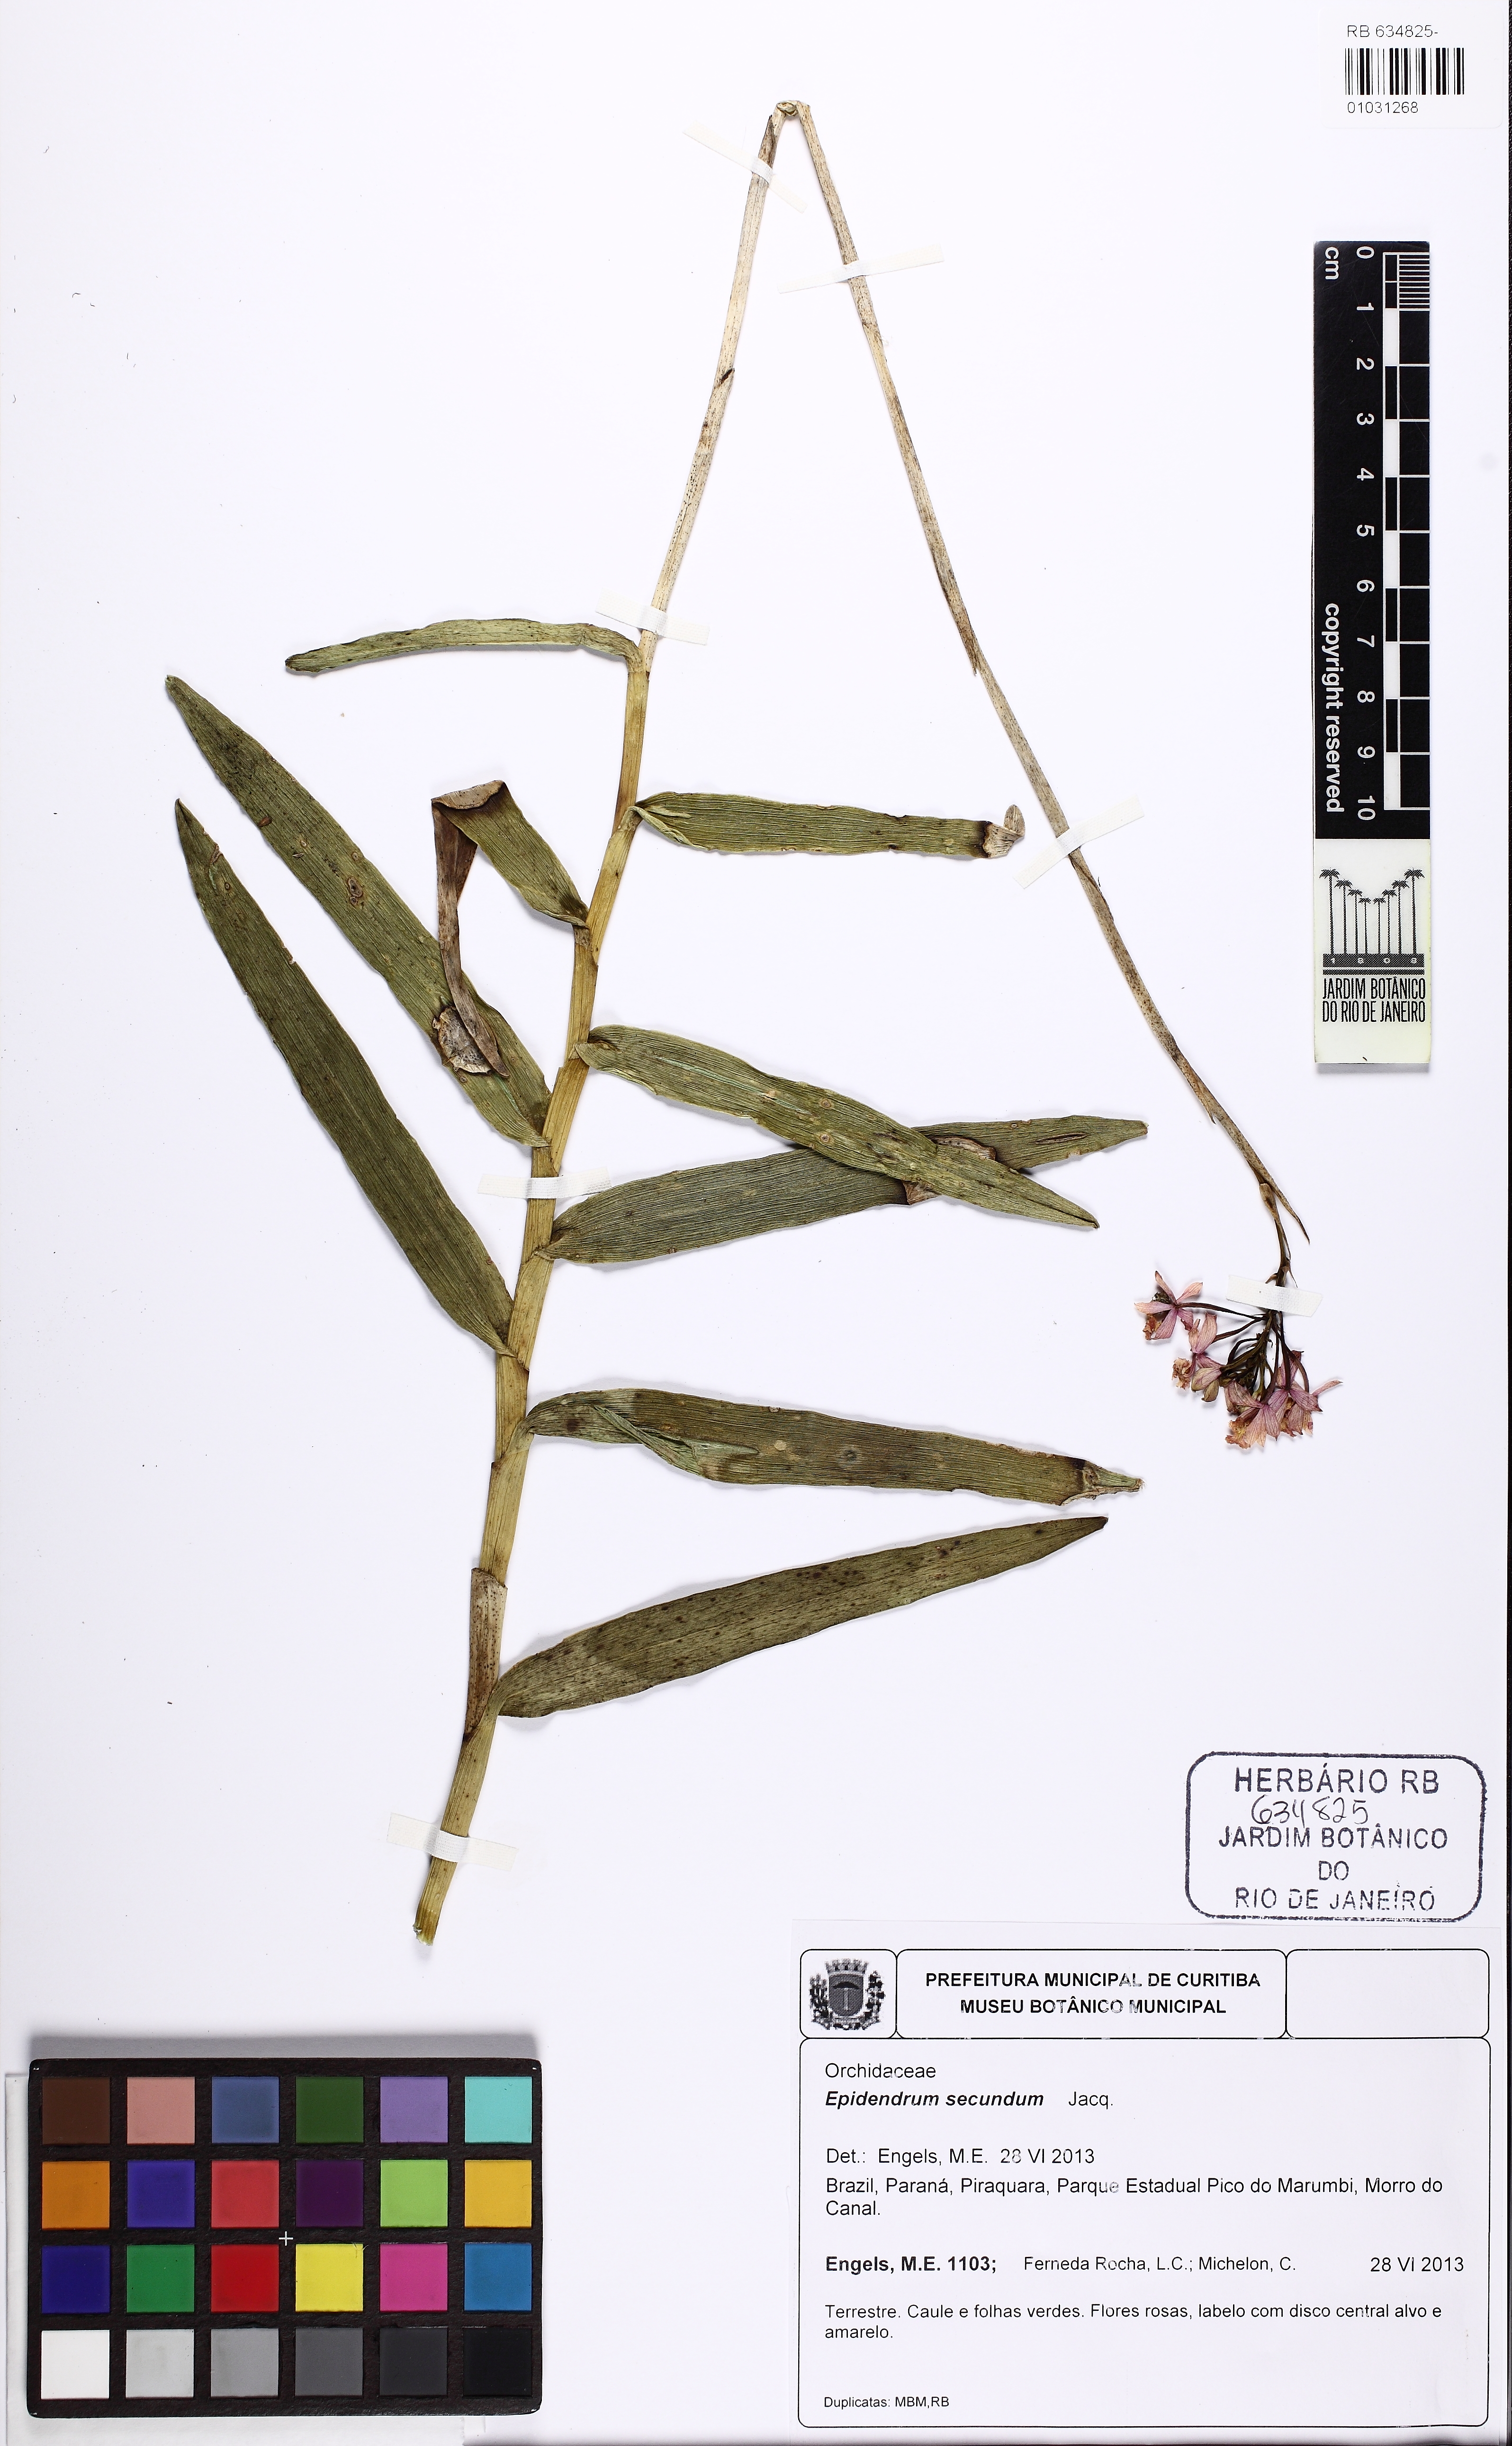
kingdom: Plantae
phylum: Tracheophyta
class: Liliopsida
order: Asparagales
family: Orchidaceae
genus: Epidendrum
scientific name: Epidendrum secundum
